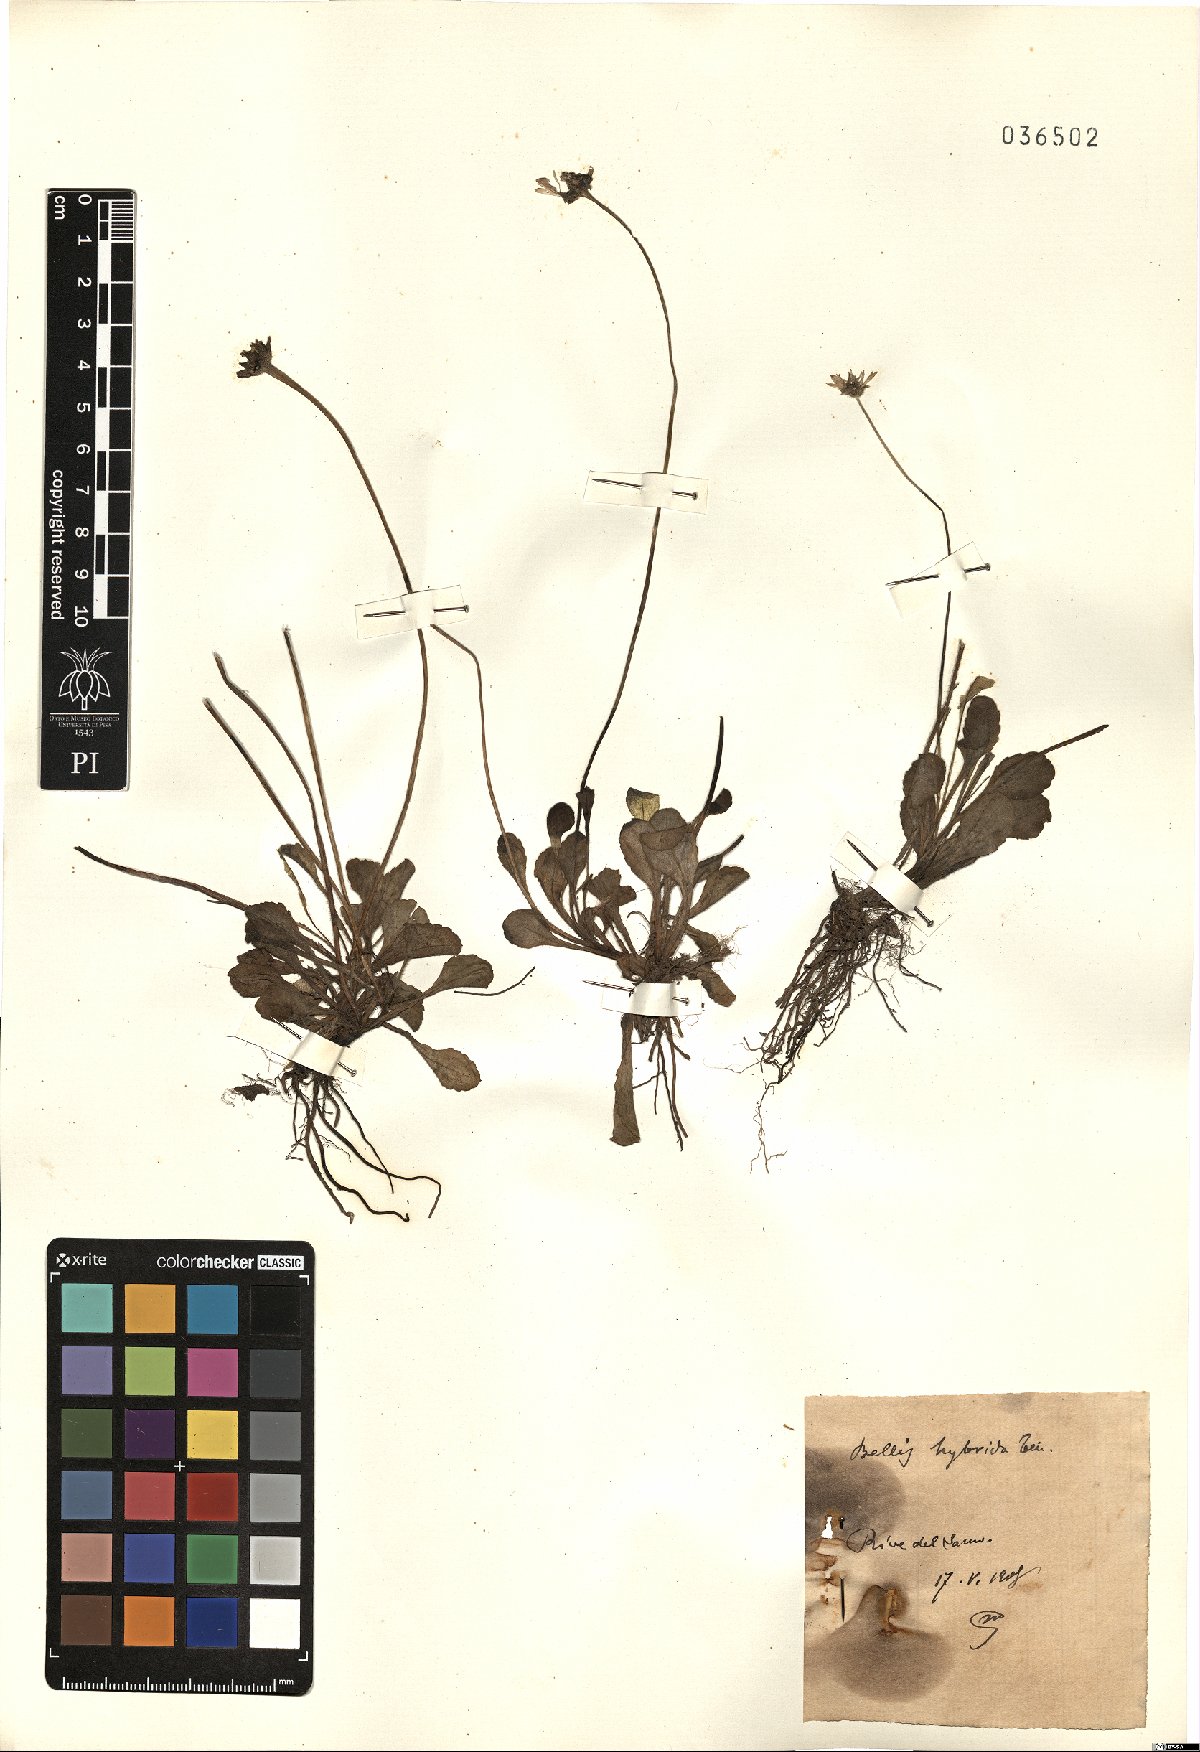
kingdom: Plantae
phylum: Tracheophyta
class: Magnoliopsida
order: Asterales
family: Asteraceae
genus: Bellis
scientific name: Bellis perennis
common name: Lawndaisy
